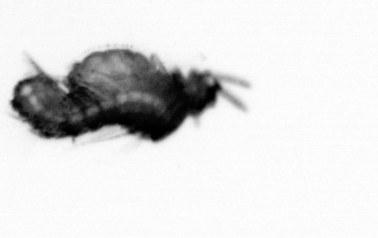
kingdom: Animalia
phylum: Annelida
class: Polychaeta
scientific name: Polychaeta
